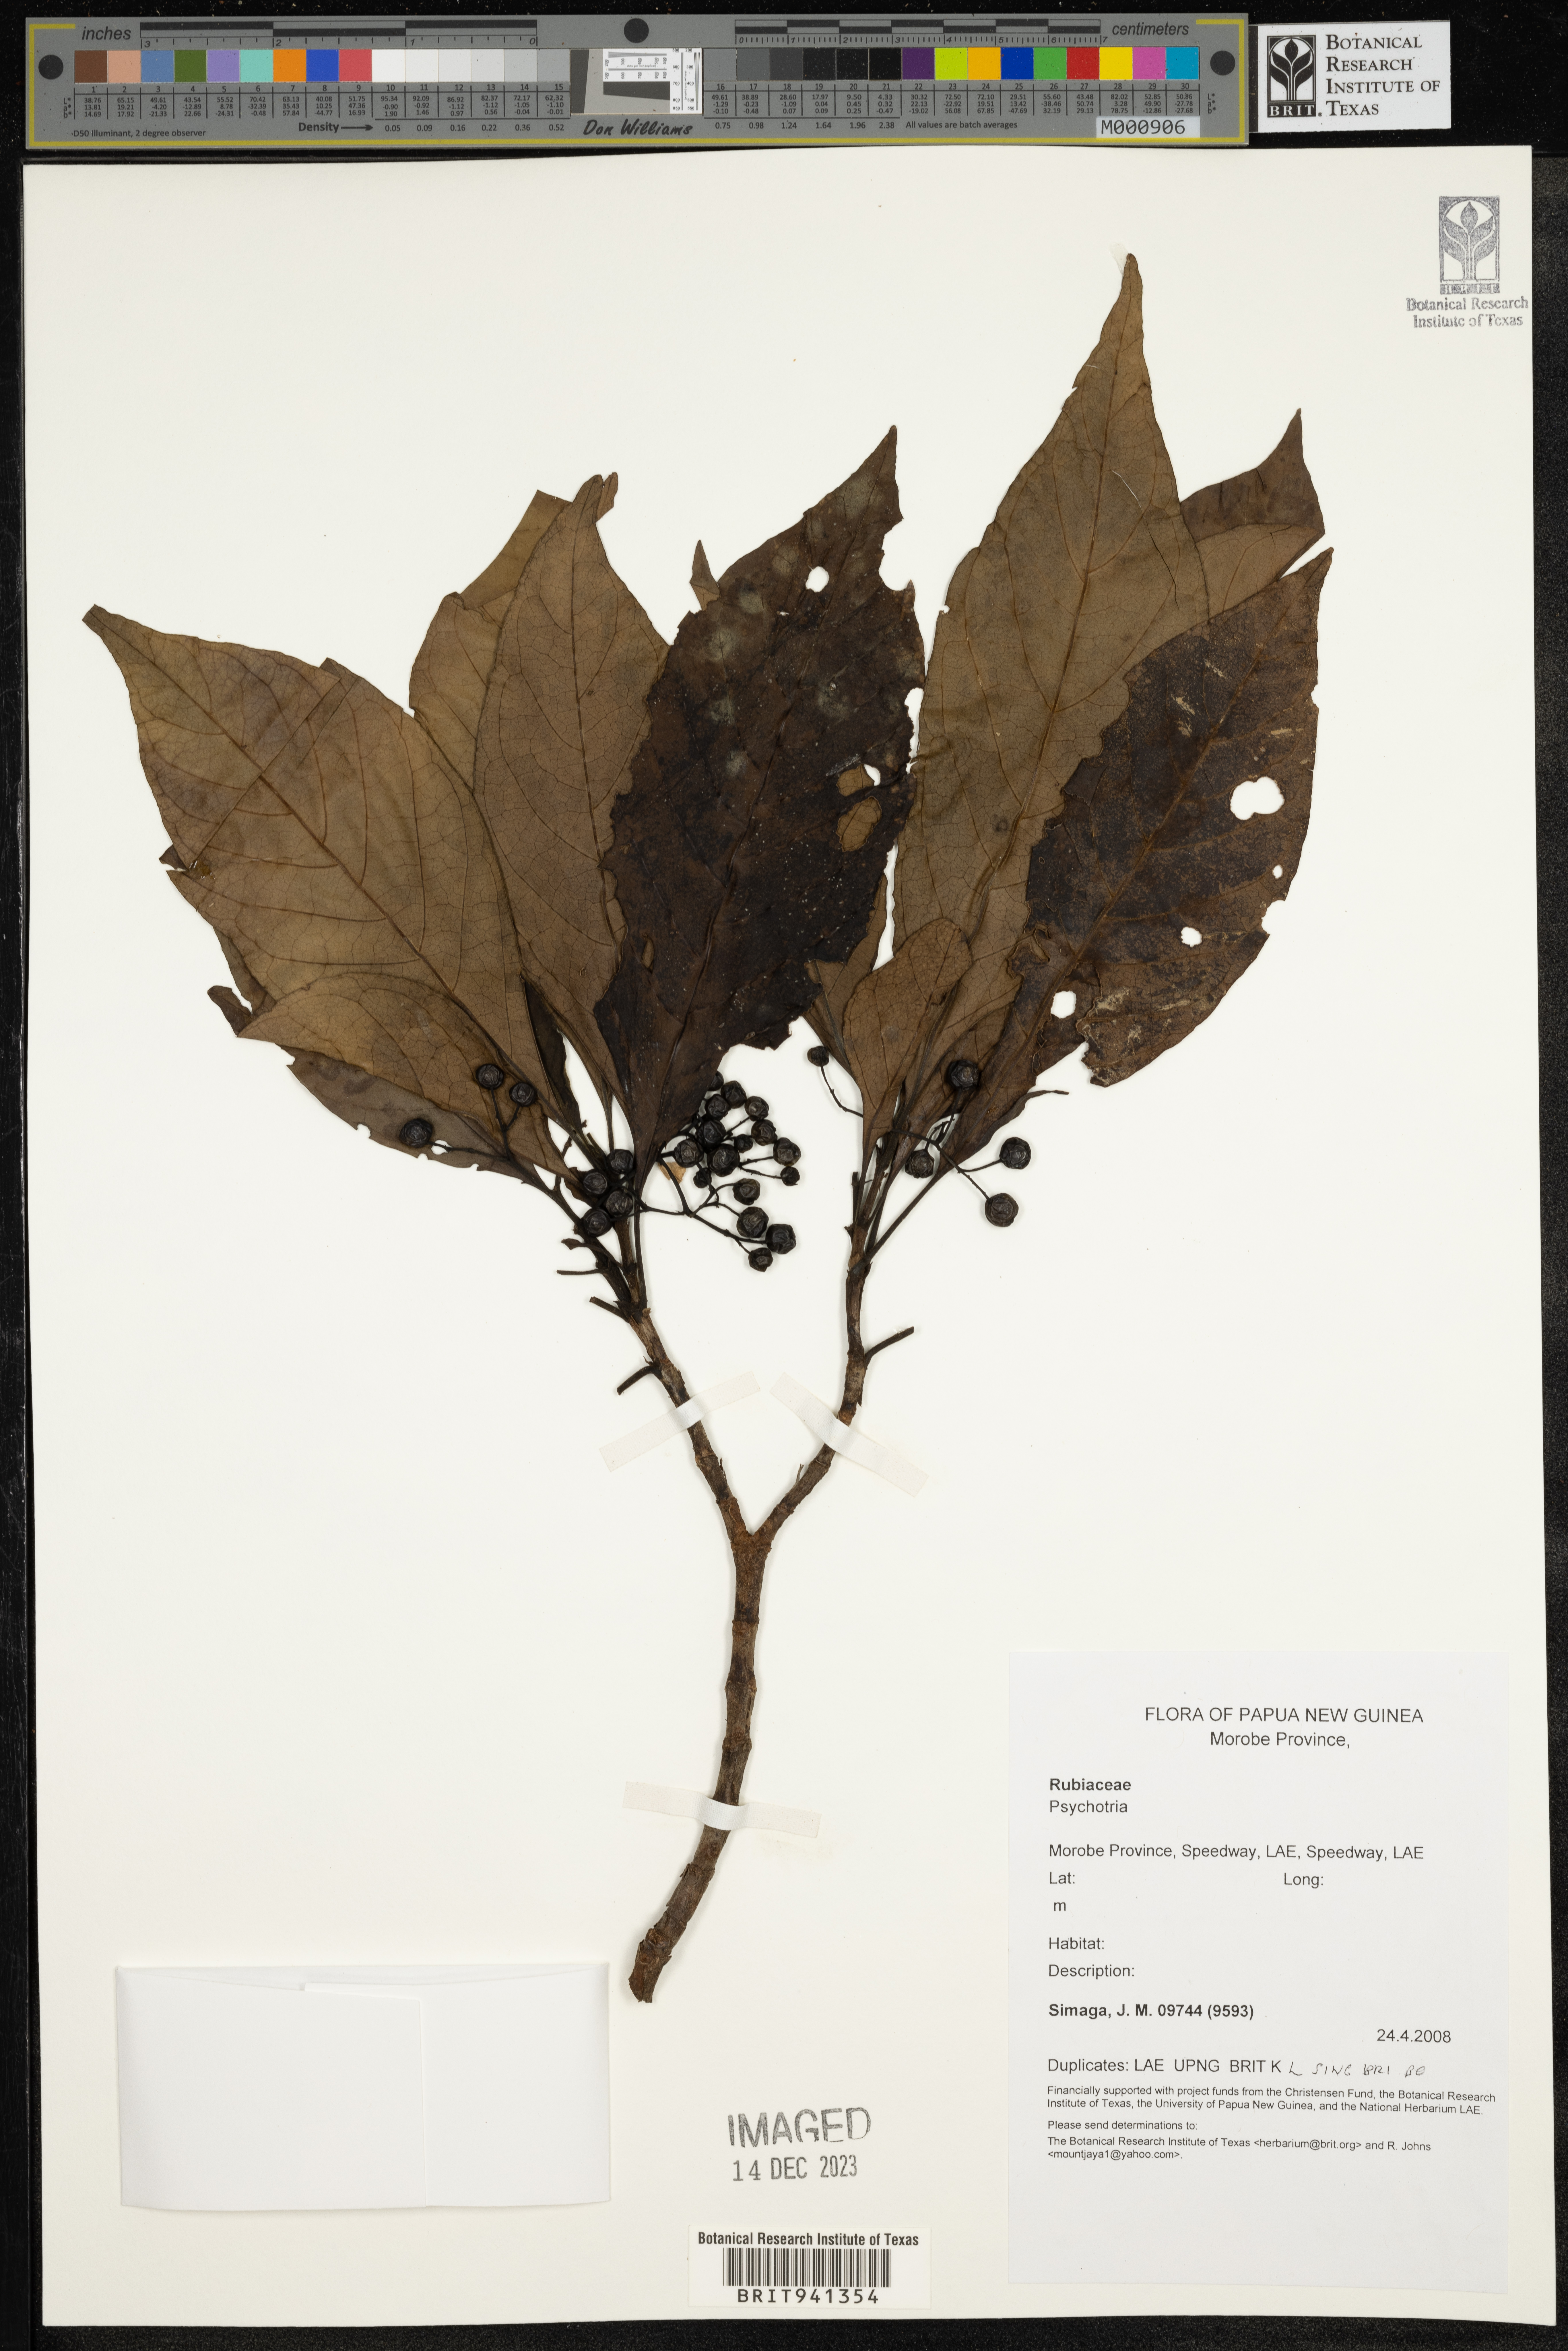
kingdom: Plantae
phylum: Tracheophyta
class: Magnoliopsida
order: Gentianales
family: Rubiaceae
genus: Psychotria
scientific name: Psychotria
